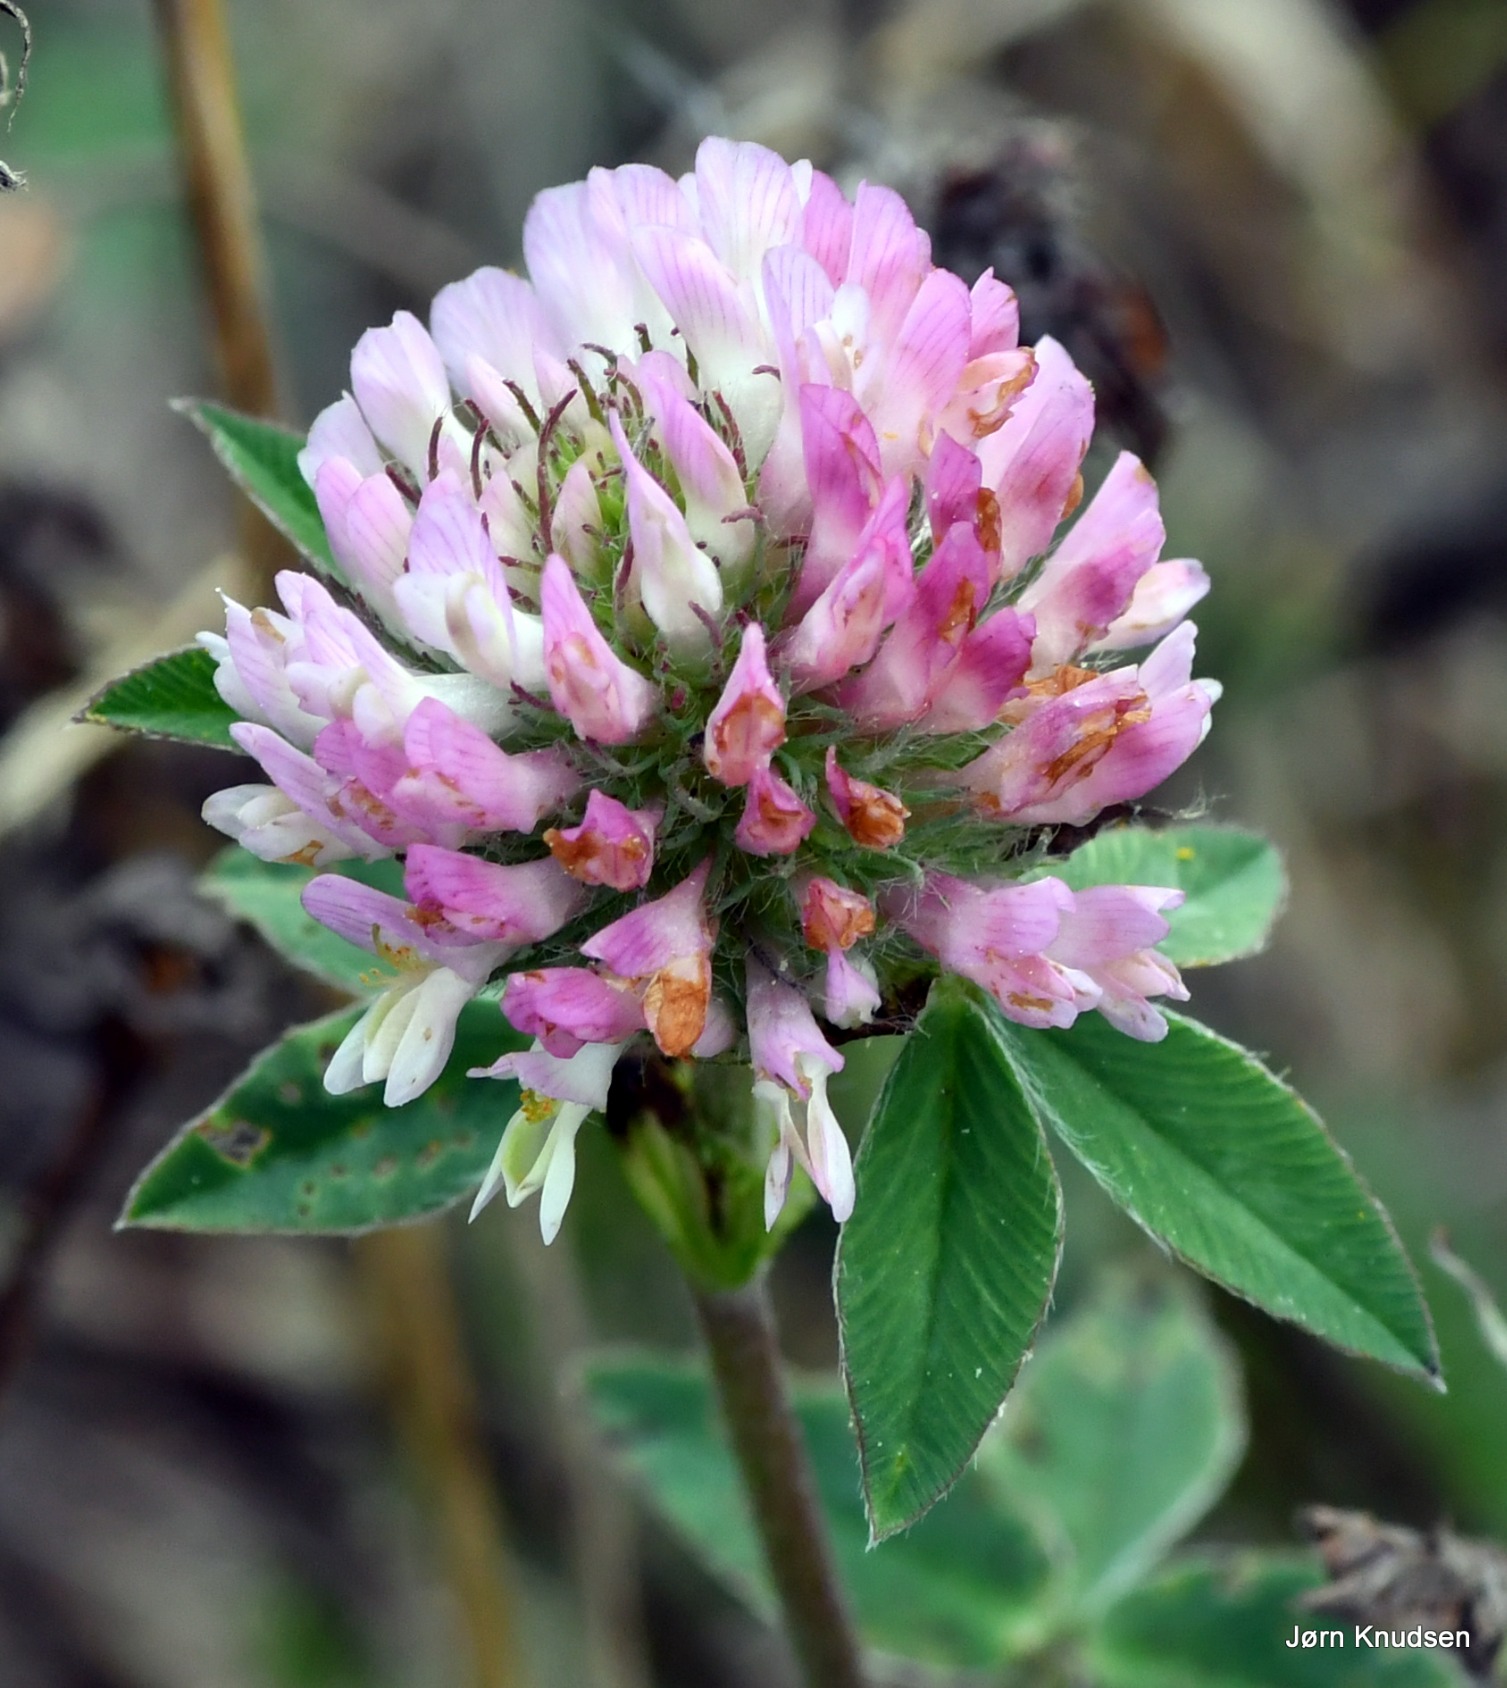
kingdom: Plantae
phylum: Tracheophyta
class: Magnoliopsida
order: Fabales
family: Fabaceae
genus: Trifolium
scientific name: Trifolium pratense
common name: Rød-kløver
